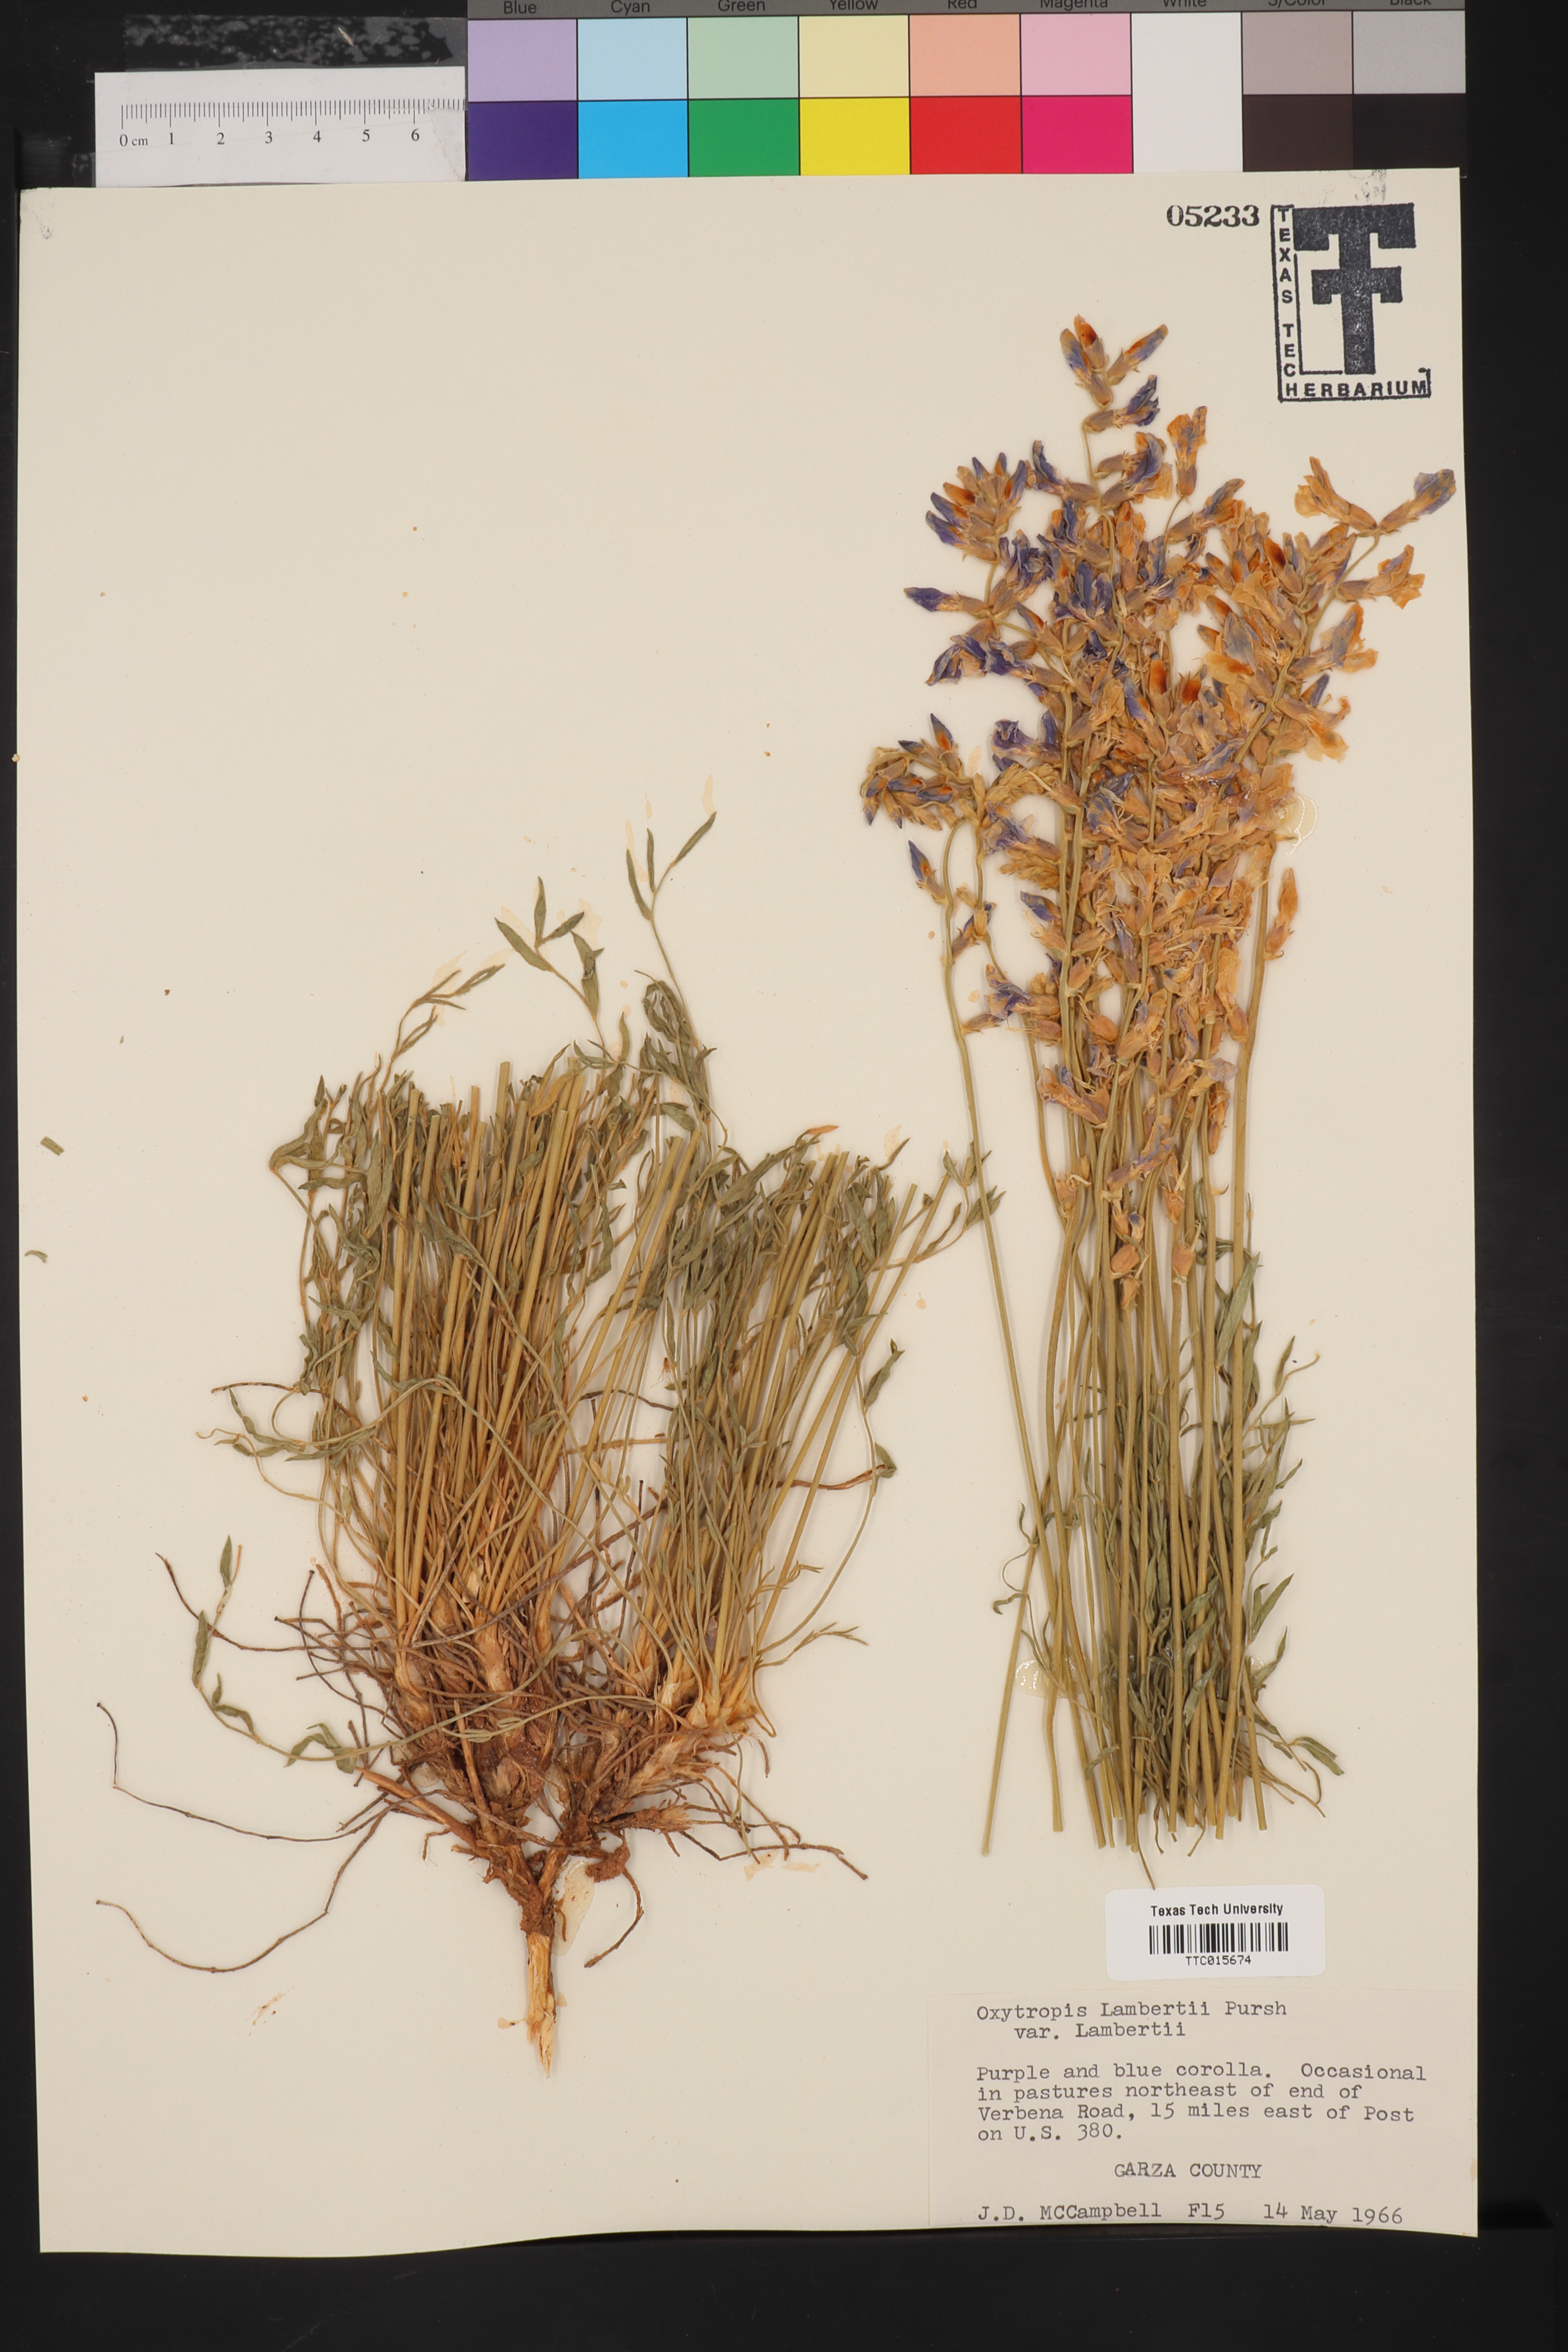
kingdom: Plantae
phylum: Tracheophyta
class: Magnoliopsida
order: Fabales
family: Fabaceae
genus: Oxytropis
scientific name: Oxytropis lambertii
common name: Purple locoweed
